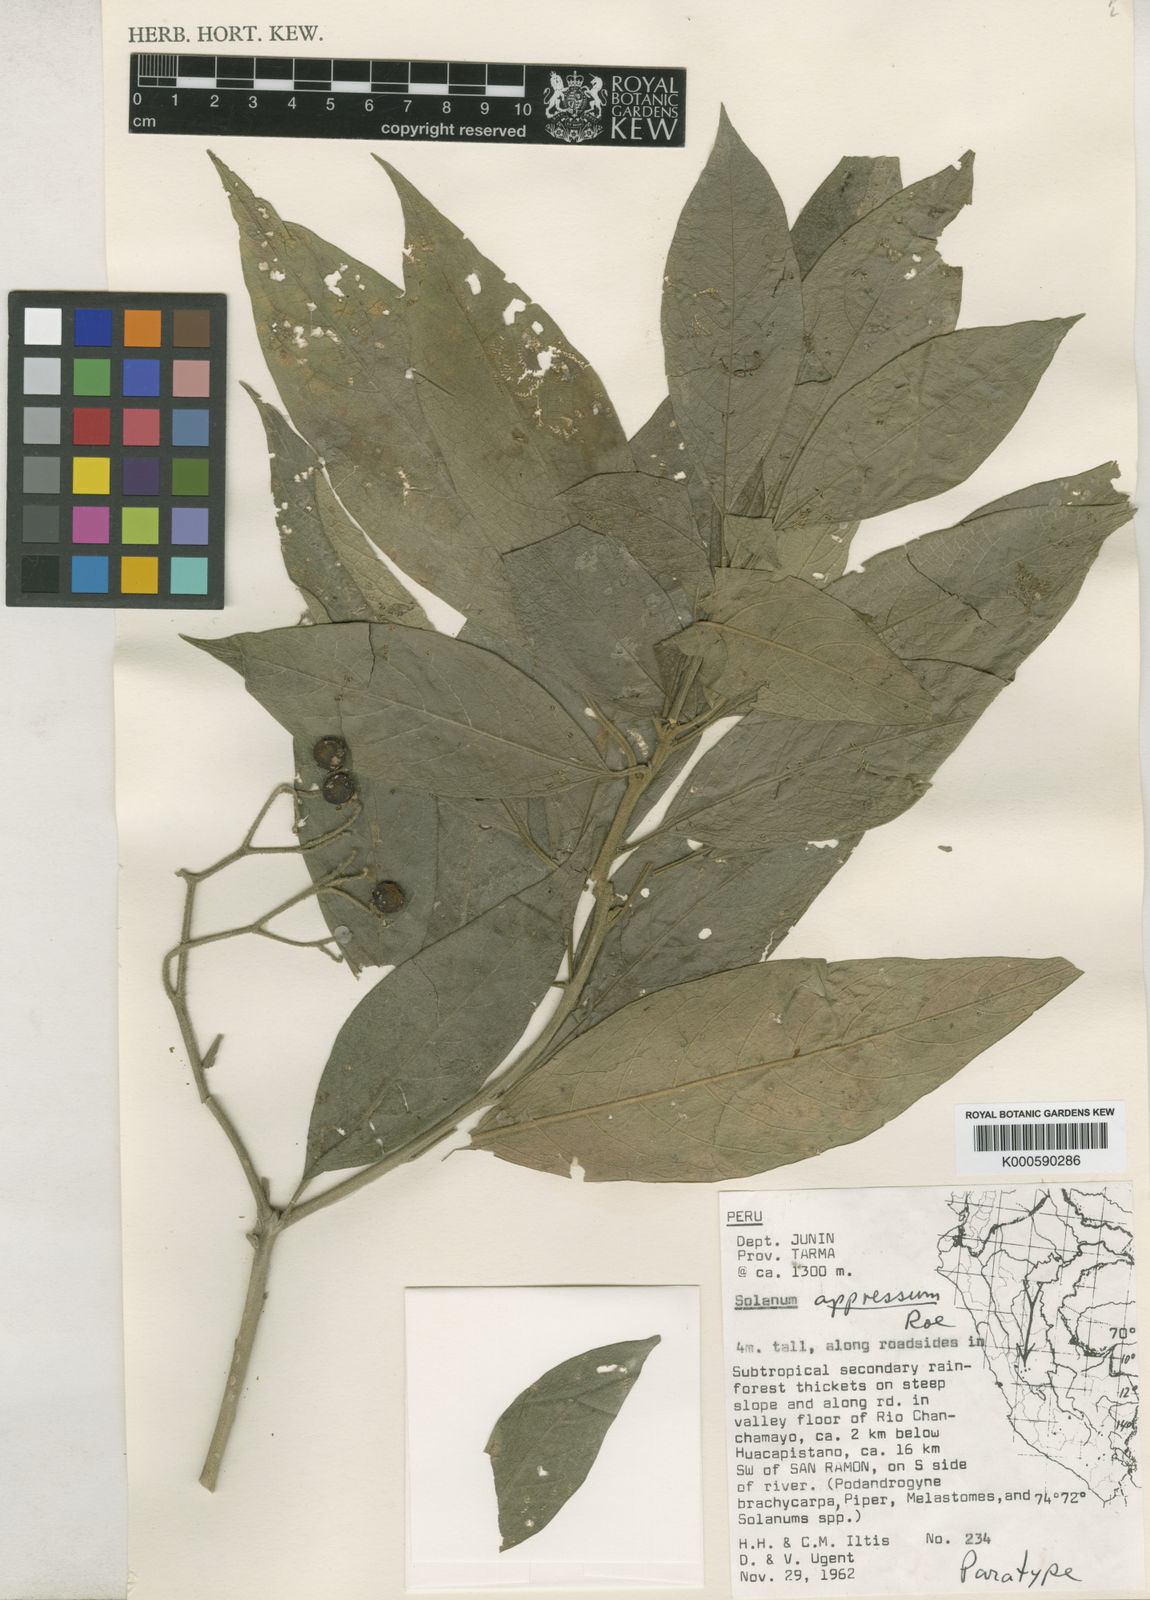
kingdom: Plantae
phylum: Tracheophyta
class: Magnoliopsida
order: Solanales
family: Solanaceae
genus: Solanum
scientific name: Solanum appressum
